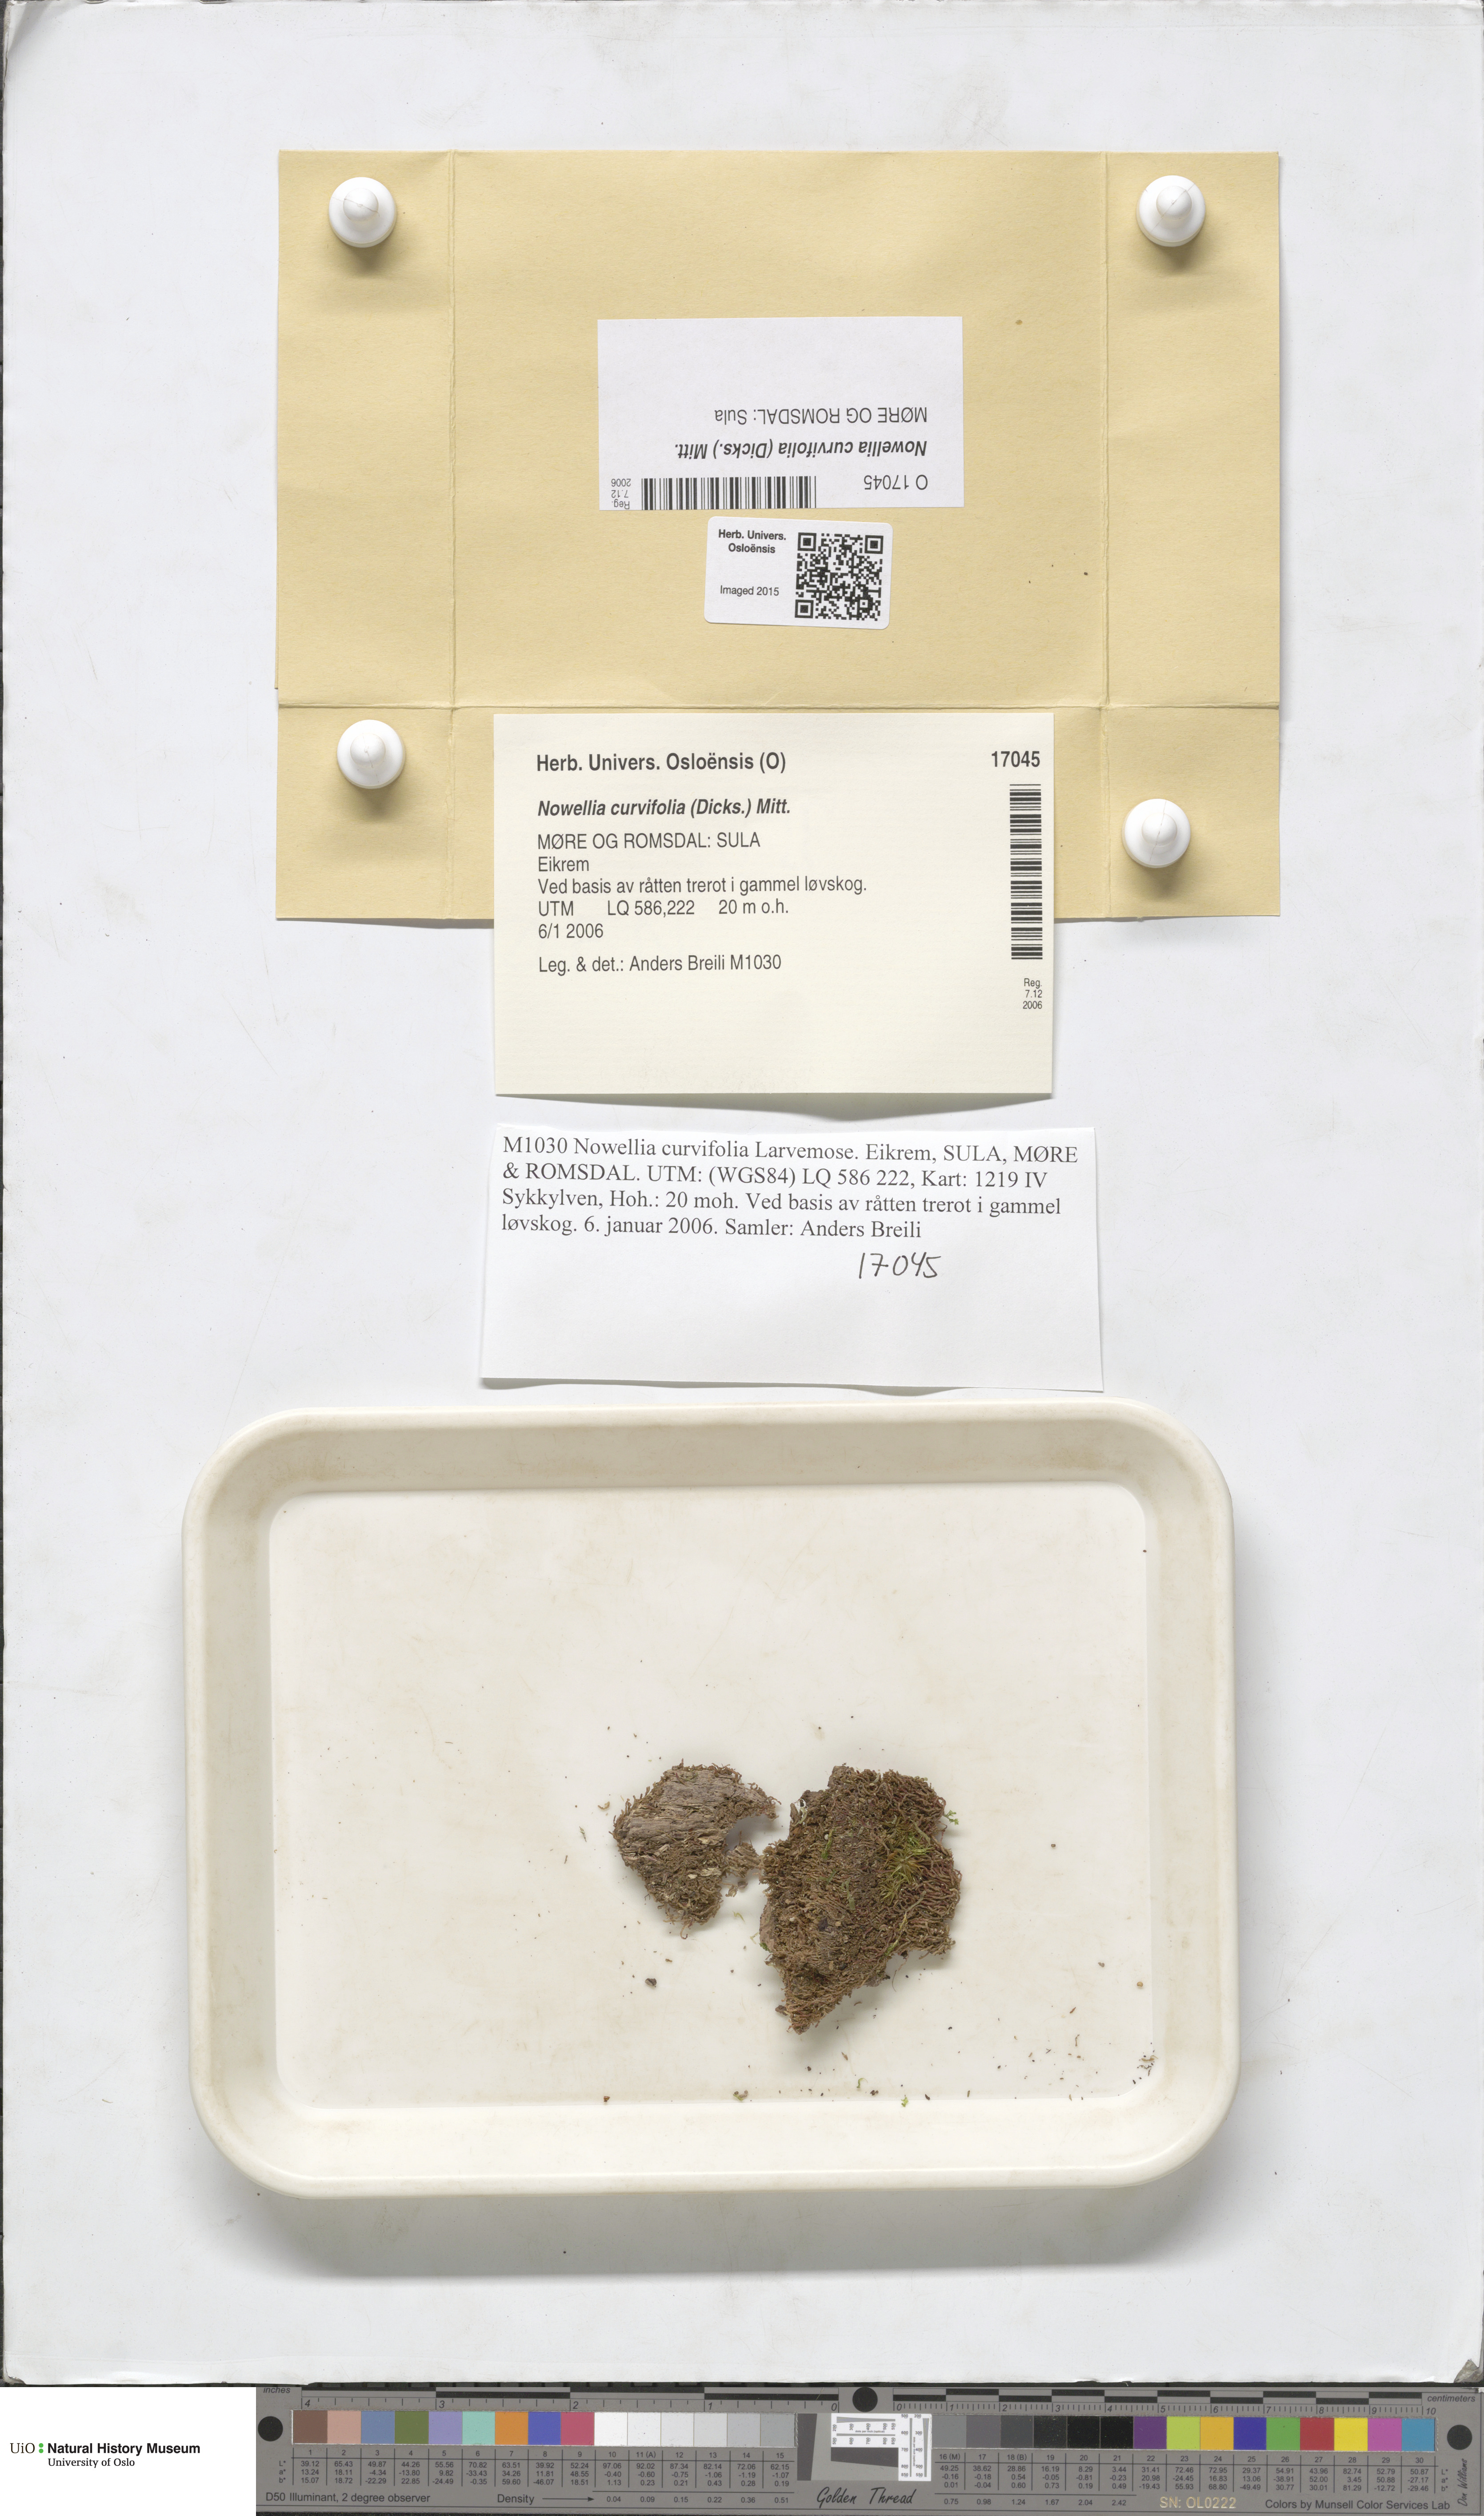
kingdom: Plantae
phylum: Marchantiophyta
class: Jungermanniopsida
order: Jungermanniales
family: Cephaloziaceae
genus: Nowellia
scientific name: Nowellia curvifolia
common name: Wood rustwort
